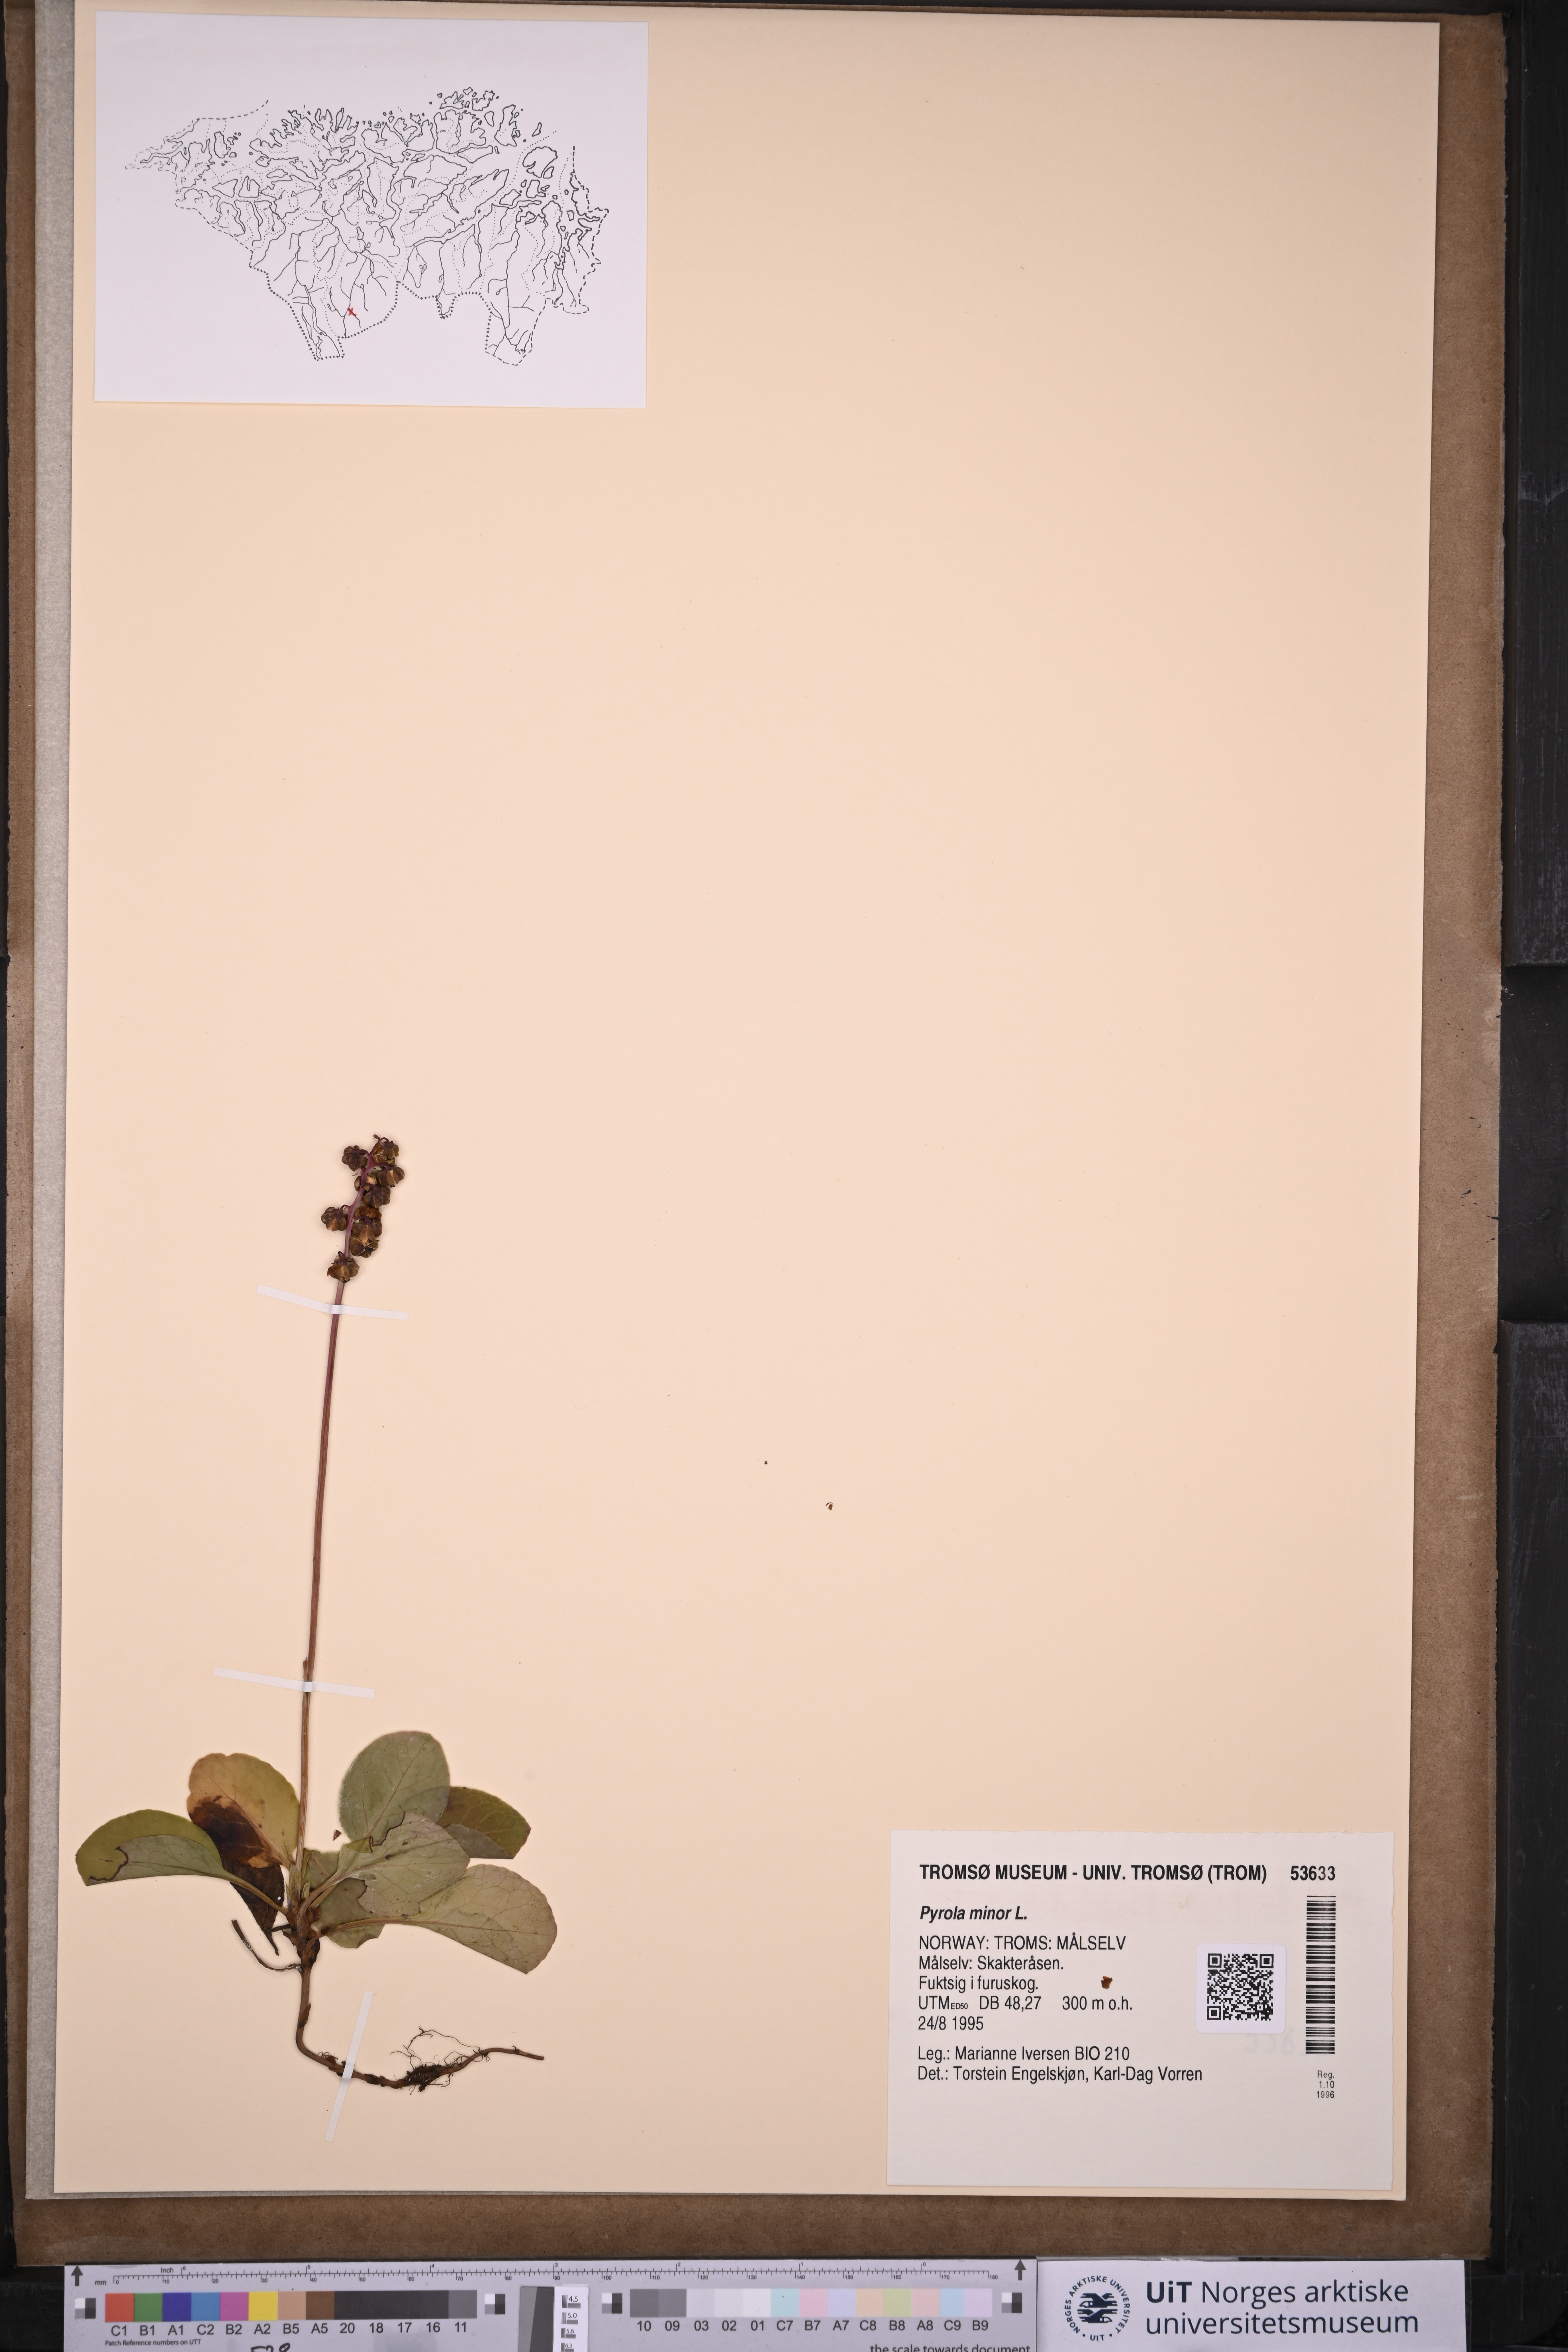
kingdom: Plantae
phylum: Tracheophyta
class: Magnoliopsida
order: Ericales
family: Ericaceae
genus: Pyrola
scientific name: Pyrola minor
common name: Common wintergreen
